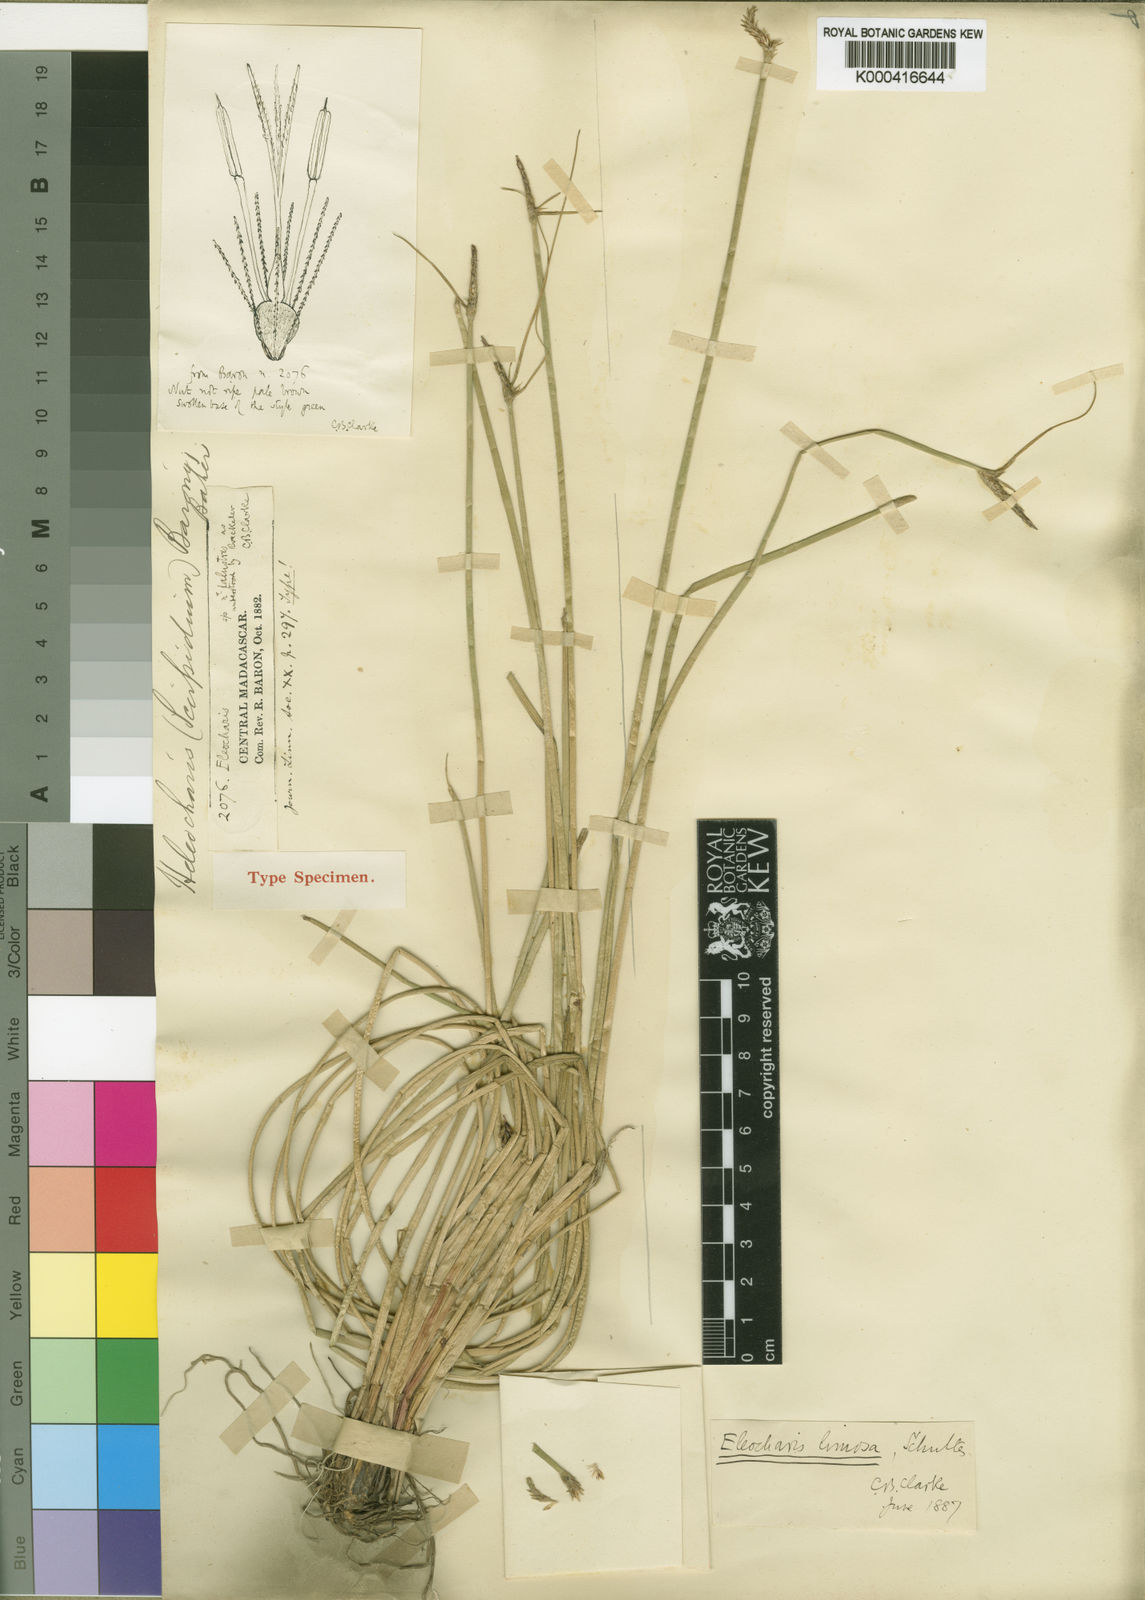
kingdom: Plantae
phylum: Tracheophyta
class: Liliopsida
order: Poales
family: Cyperaceae
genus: Eleocharis
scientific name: Eleocharis limosa
